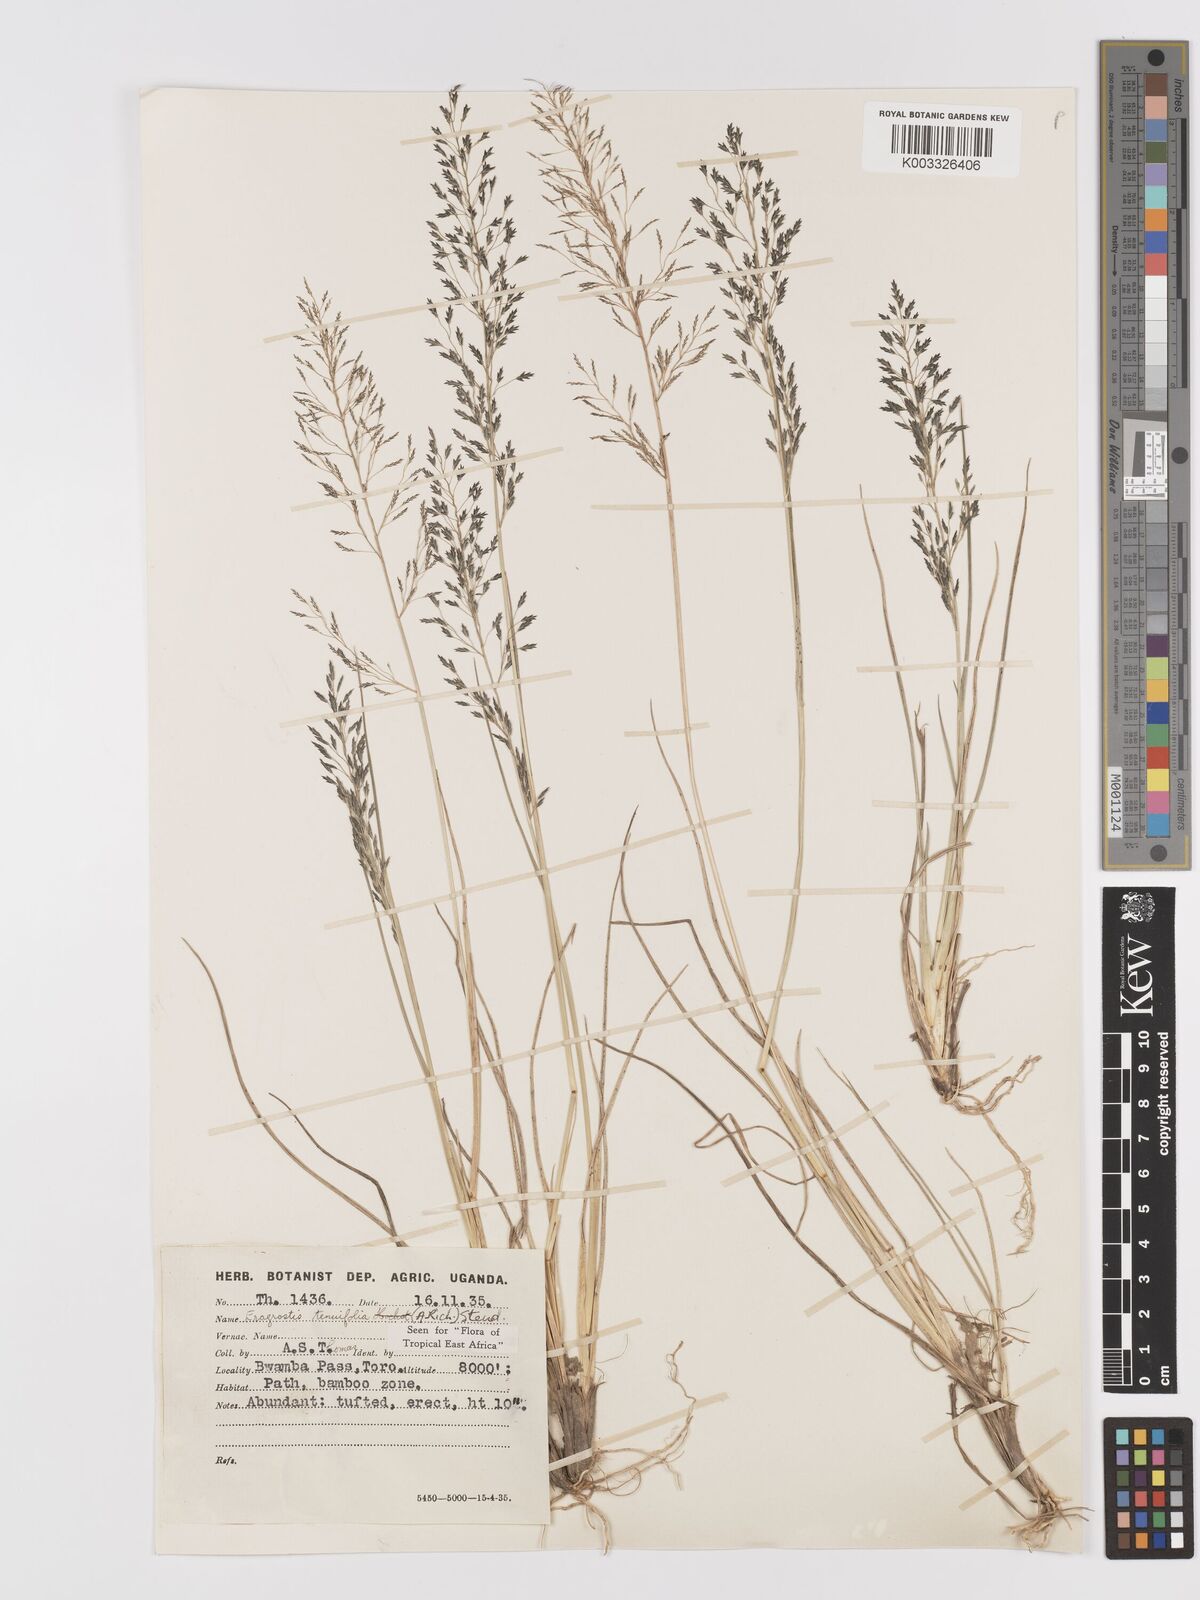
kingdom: Plantae
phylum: Tracheophyta
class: Liliopsida
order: Poales
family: Poaceae
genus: Eragrostis
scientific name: Eragrostis tenuifolia
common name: Elastic grass
